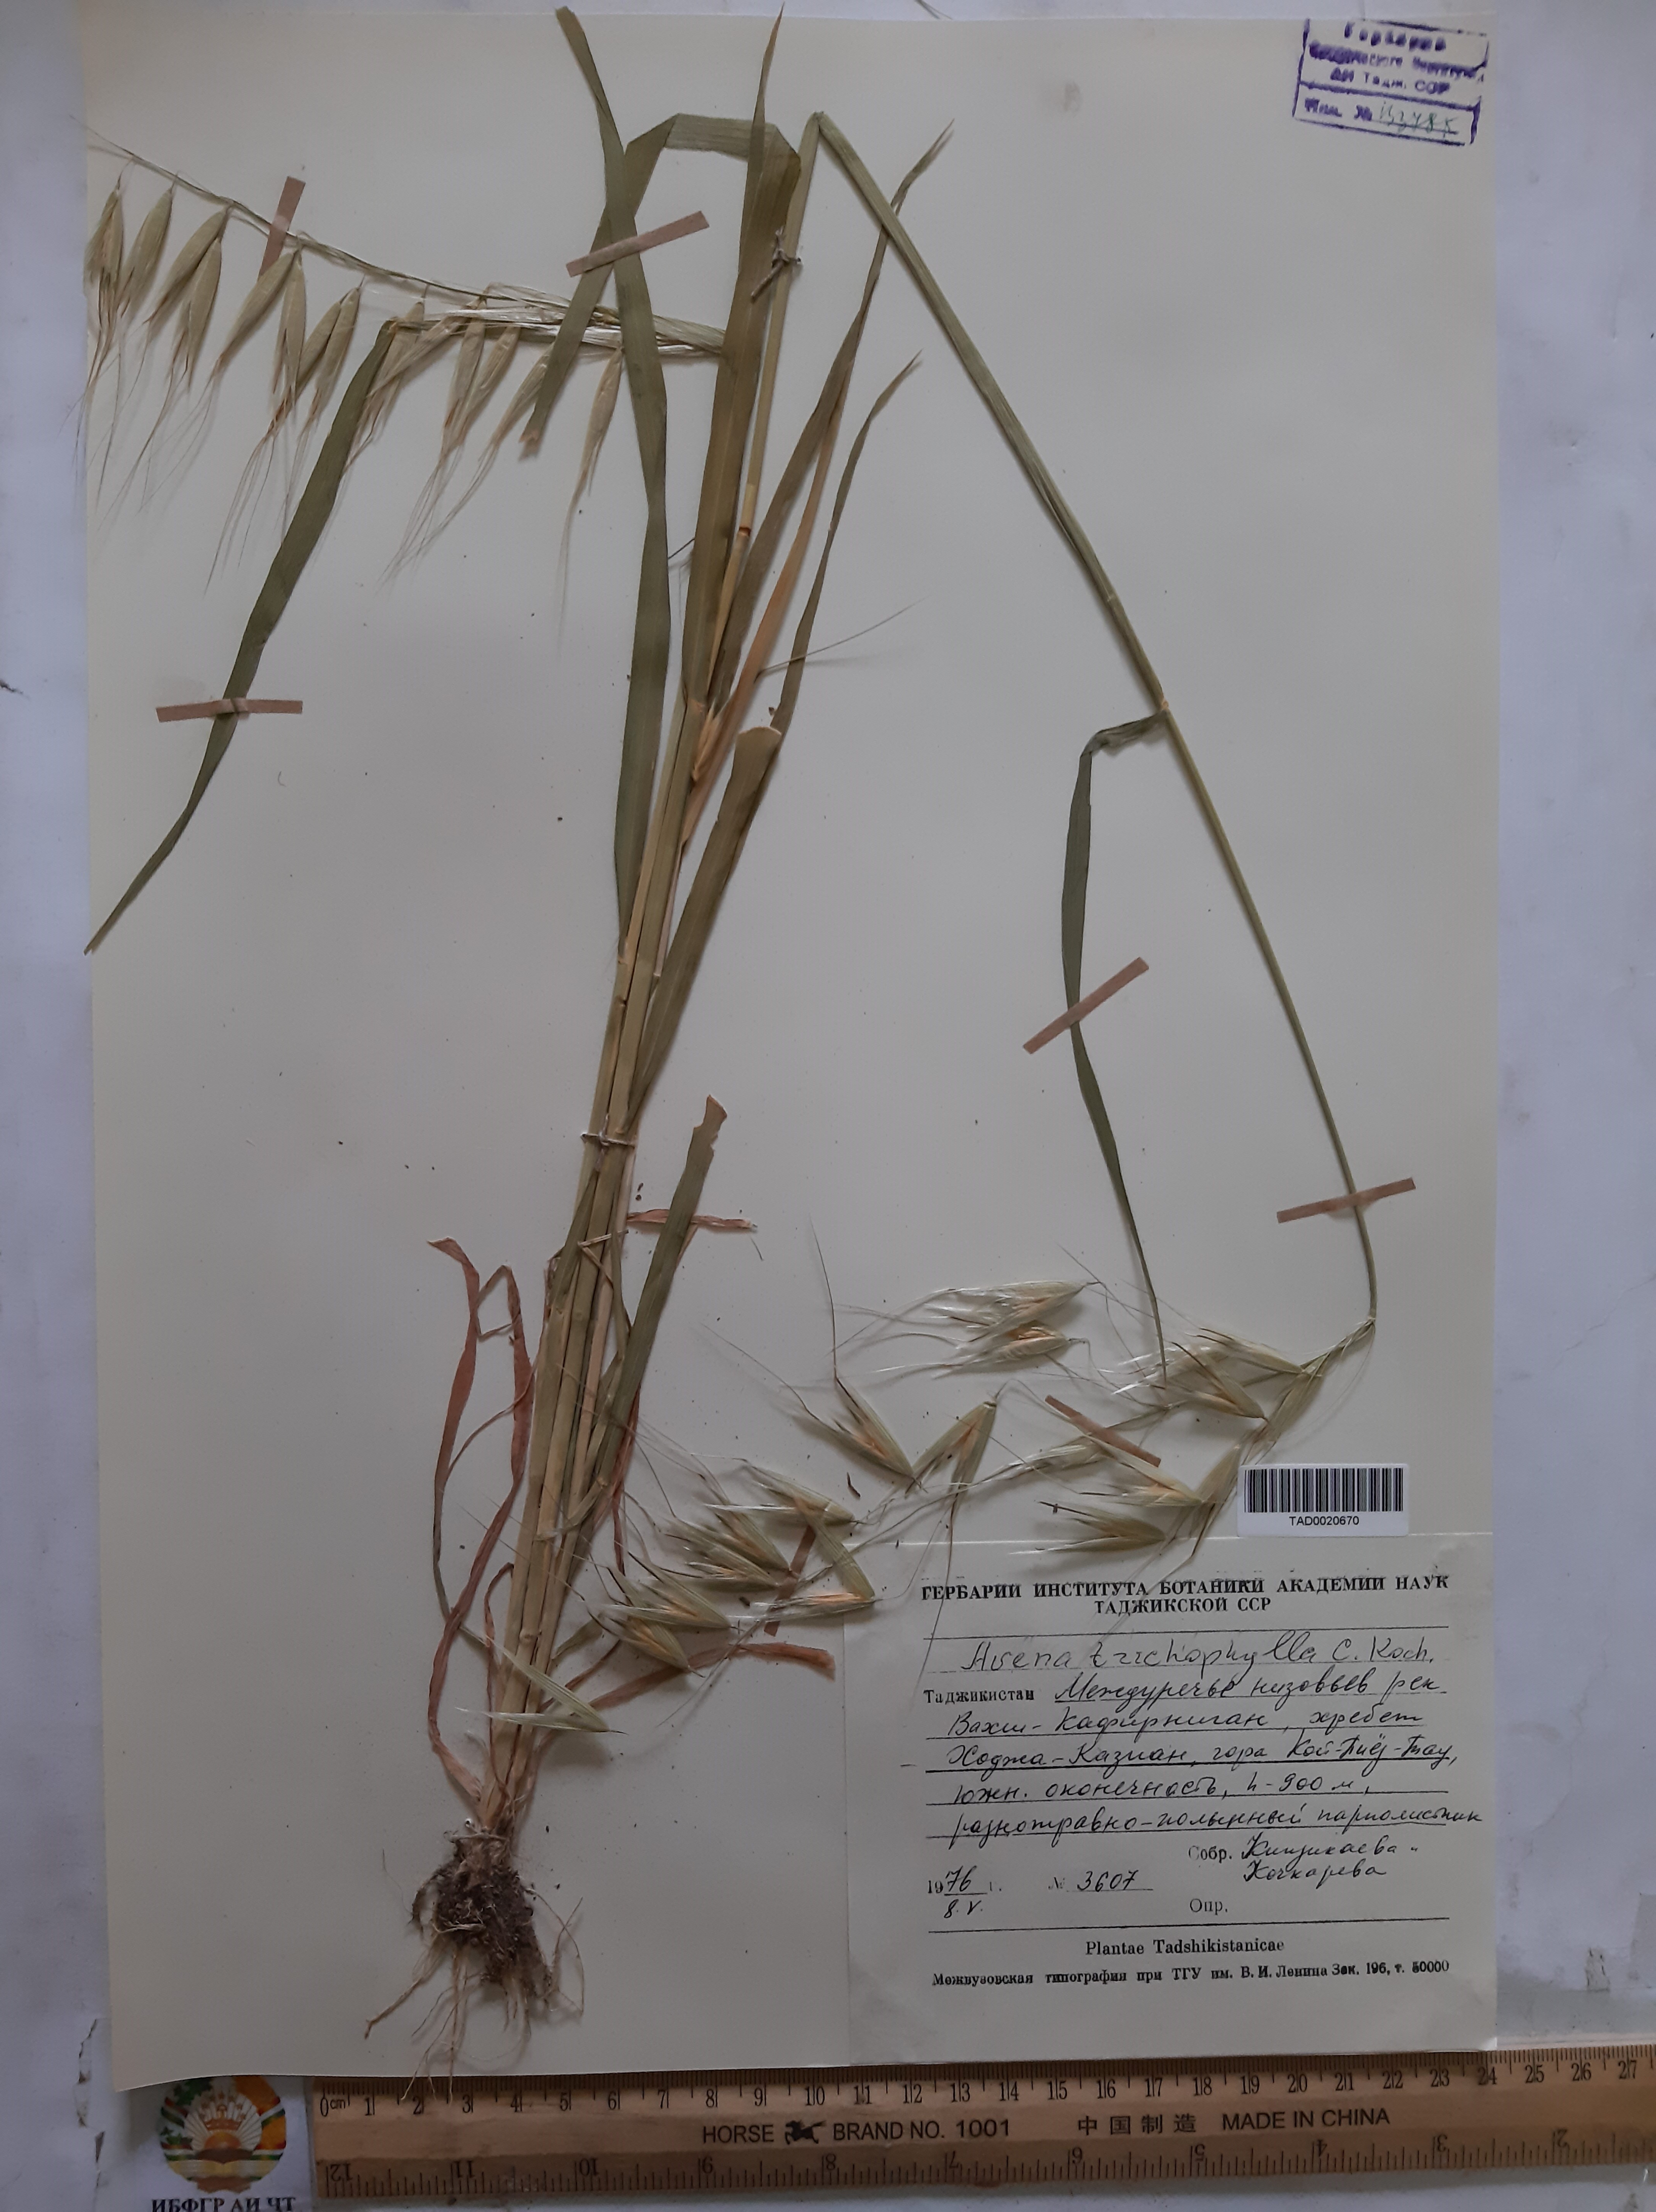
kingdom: Plantae
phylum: Tracheophyta
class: Liliopsida
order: Poales
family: Poaceae
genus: Avena
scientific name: Avena sterilis
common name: Animated oat
